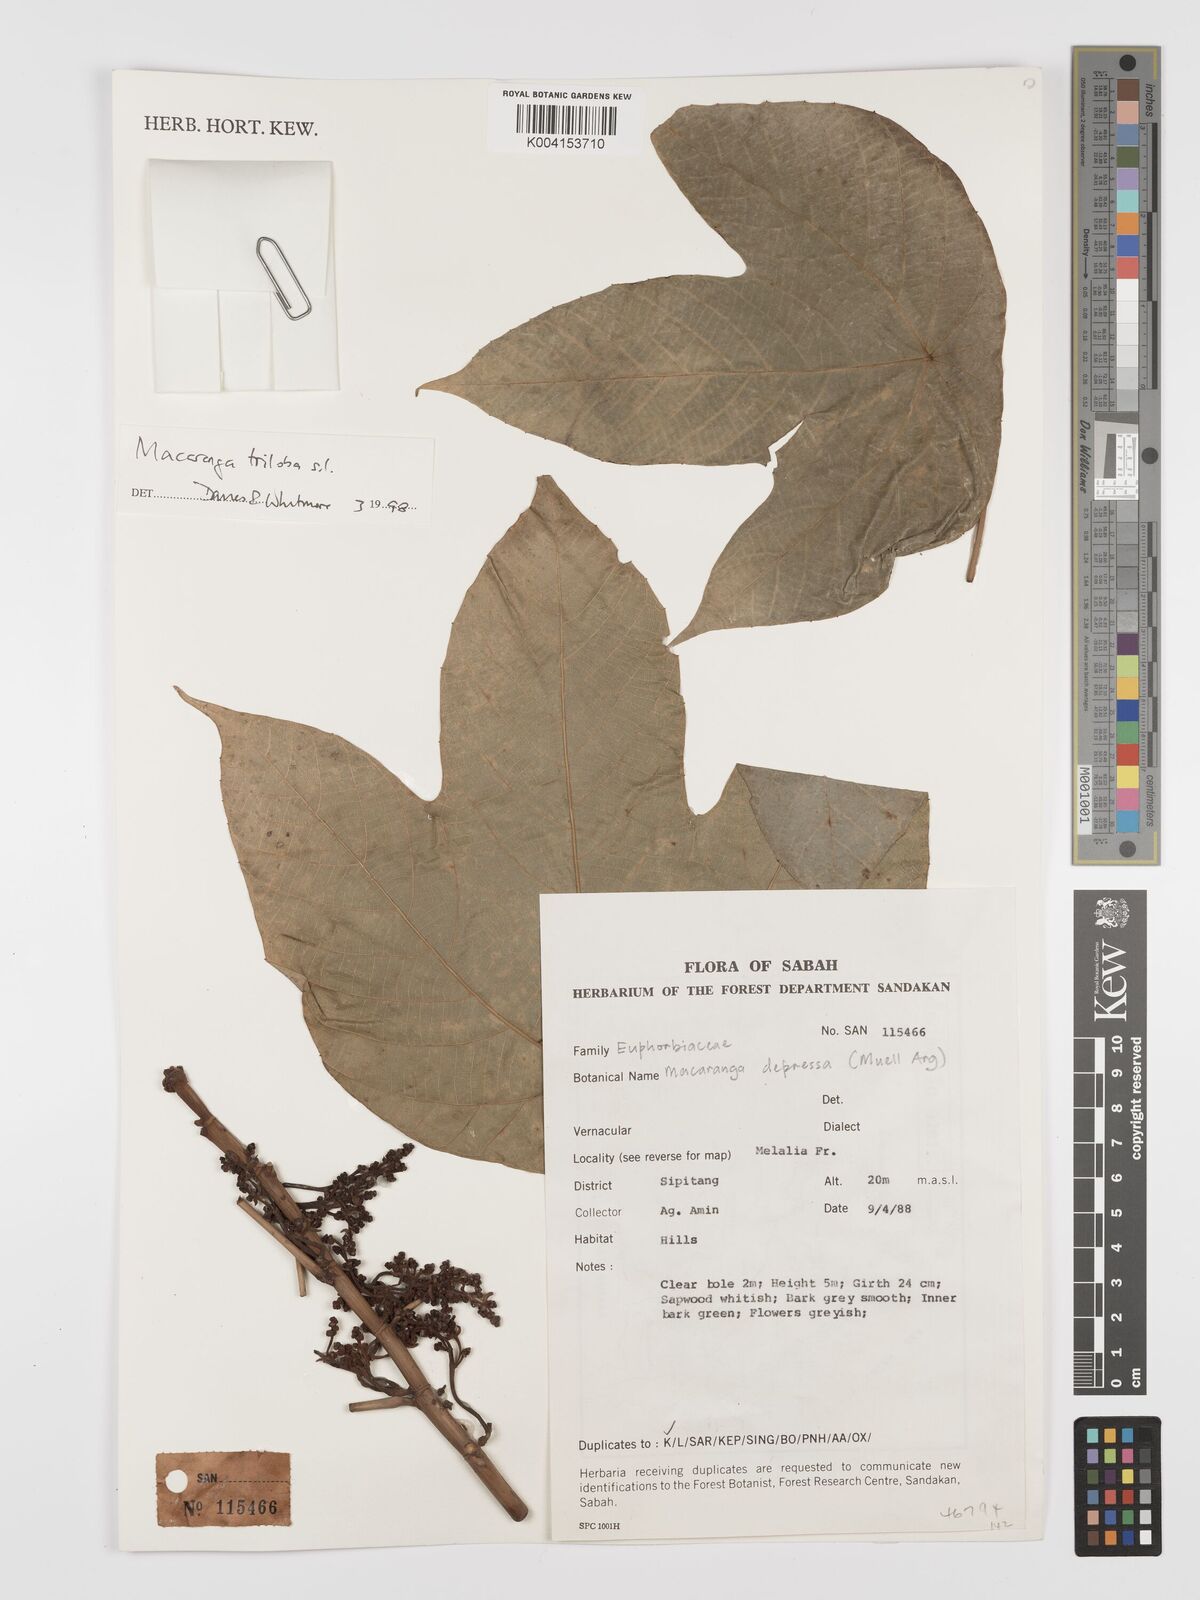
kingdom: Plantae
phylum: Tracheophyta
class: Magnoliopsida
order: Malpighiales
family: Euphorbiaceae
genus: Macaranga
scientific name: Macaranga triloba
